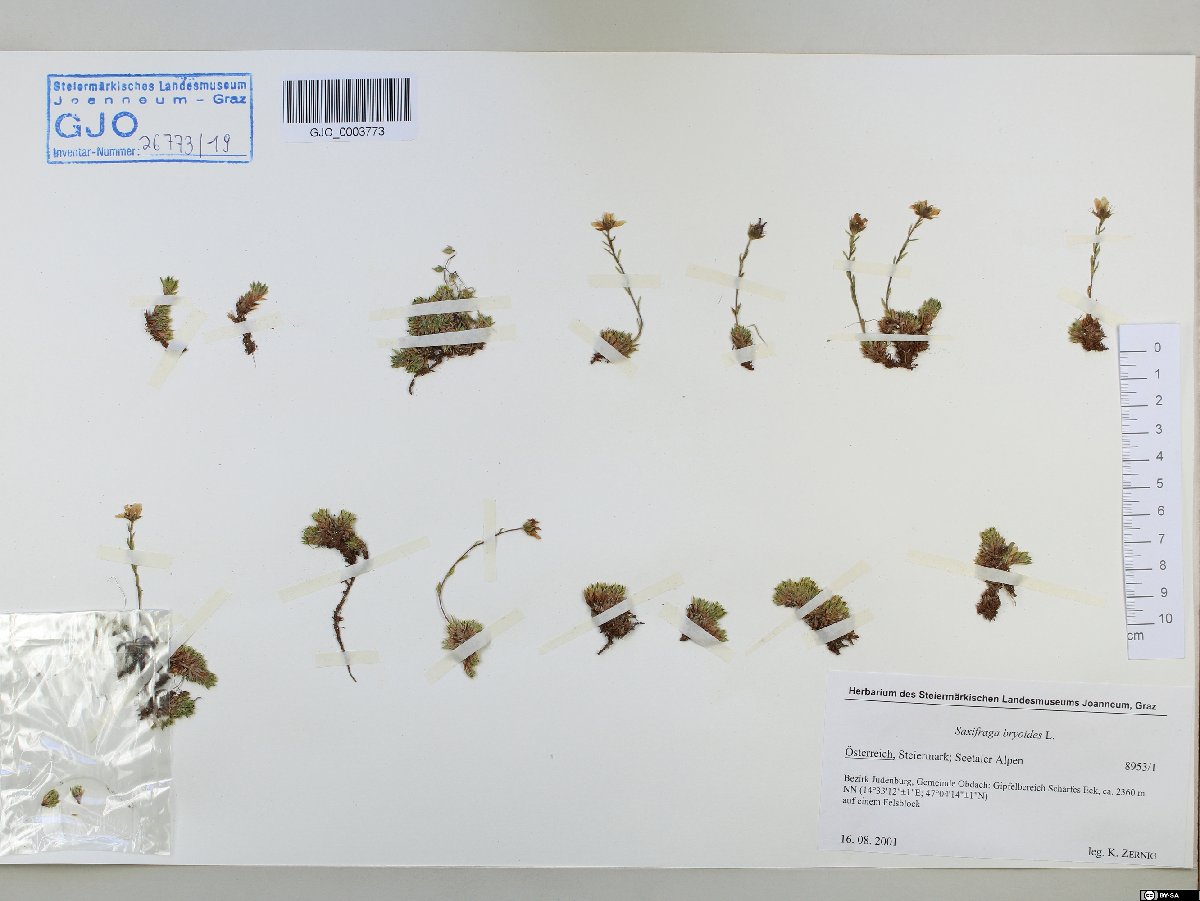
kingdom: Plantae
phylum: Tracheophyta
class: Magnoliopsida
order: Saxifragales
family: Saxifragaceae
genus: Saxifraga
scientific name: Saxifraga bryoides
